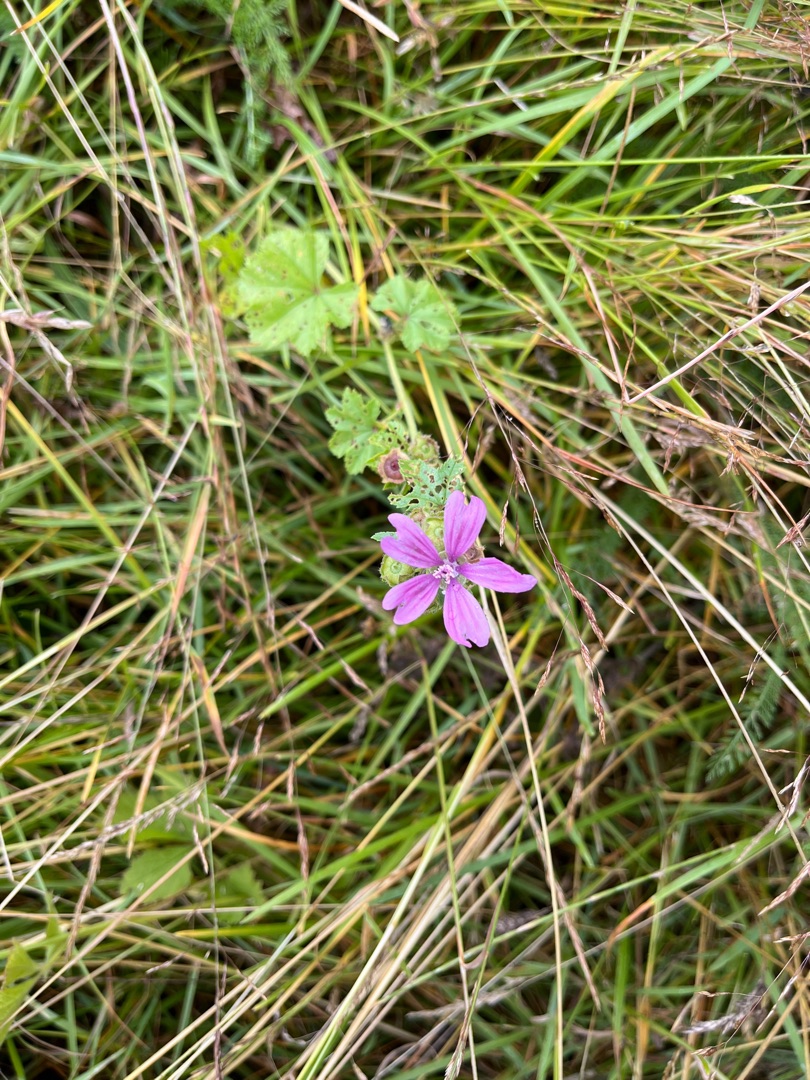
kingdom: Plantae
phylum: Tracheophyta
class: Magnoliopsida
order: Malvales
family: Malvaceae
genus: Malva
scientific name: Malva sylvestris
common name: Almindelig katost
